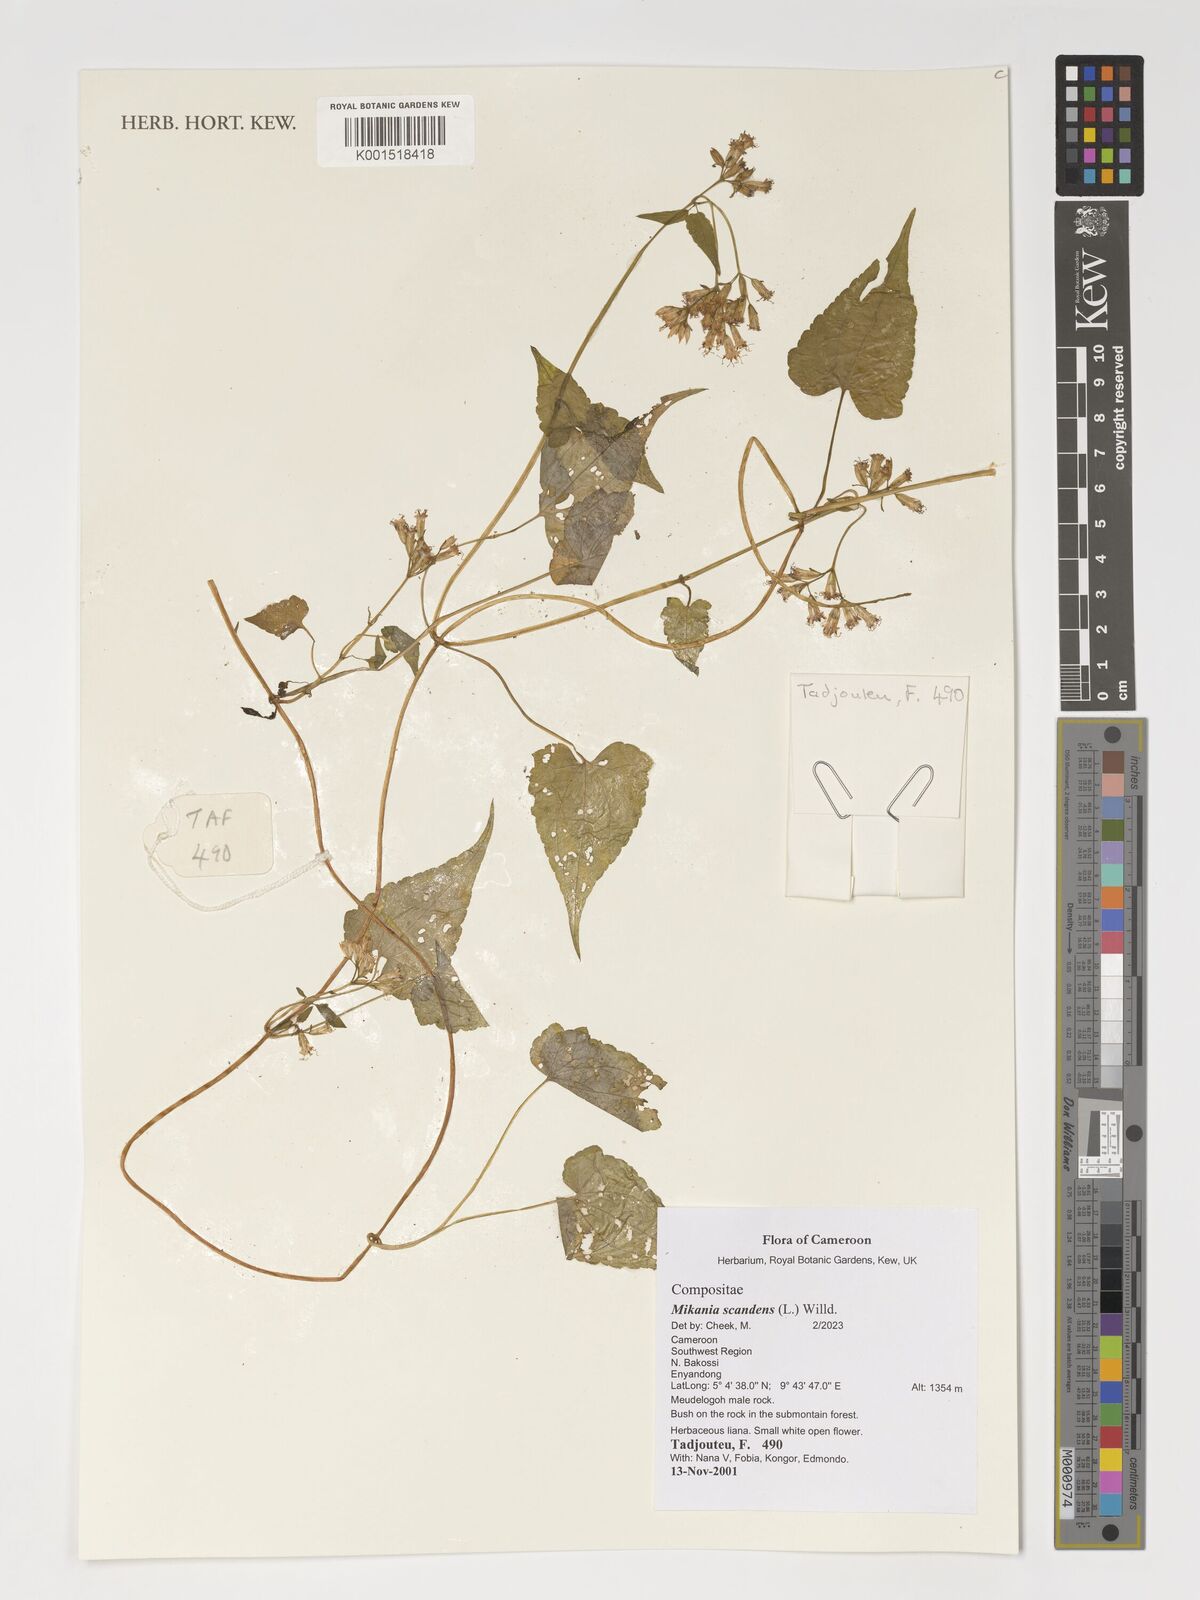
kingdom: Plantae
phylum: Tracheophyta
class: Magnoliopsida
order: Asterales
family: Asteraceae
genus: Mikania
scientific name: Mikania scandens
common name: Climbing hempvine
